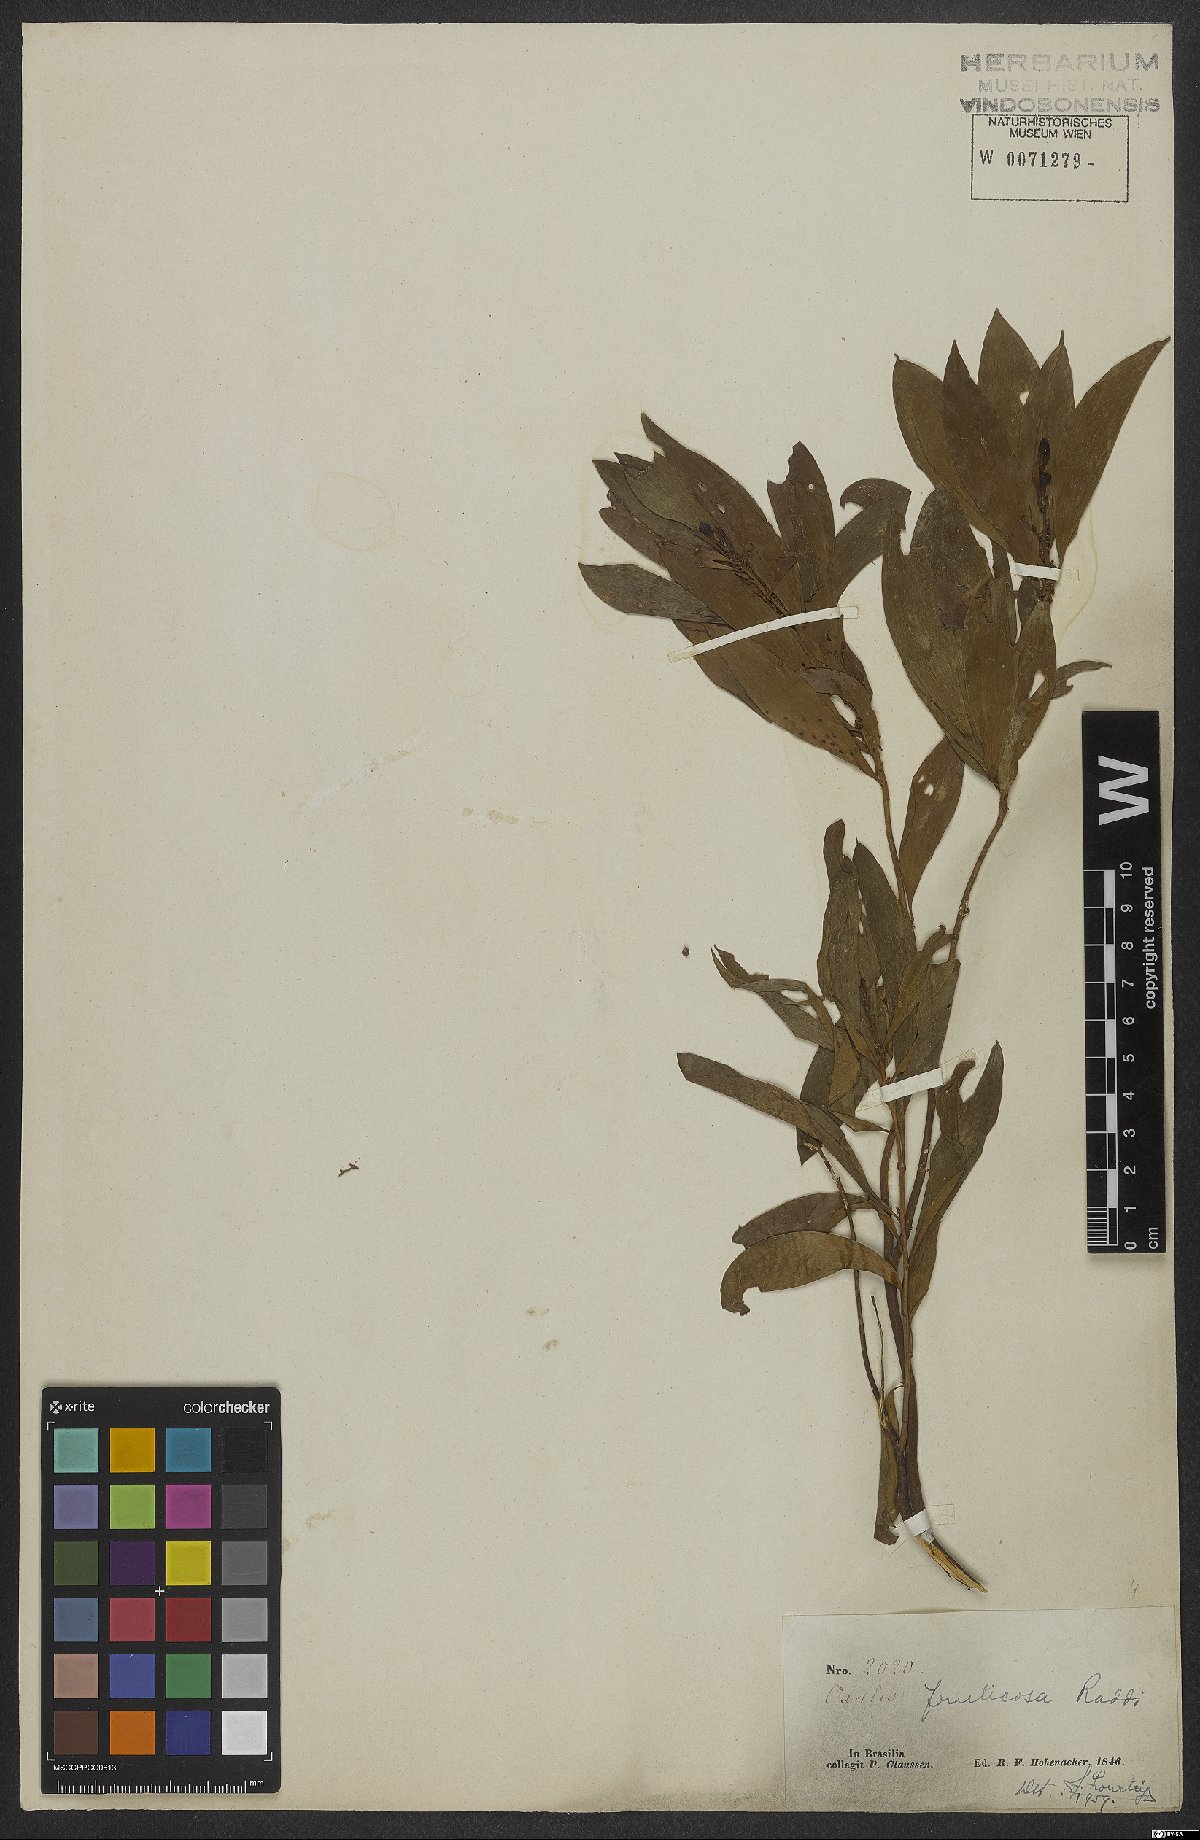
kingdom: Plantae
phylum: Tracheophyta
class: Magnoliopsida
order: Oxalidales
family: Oxalidaceae
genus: Oxalis
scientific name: Oxalis fruticosa
